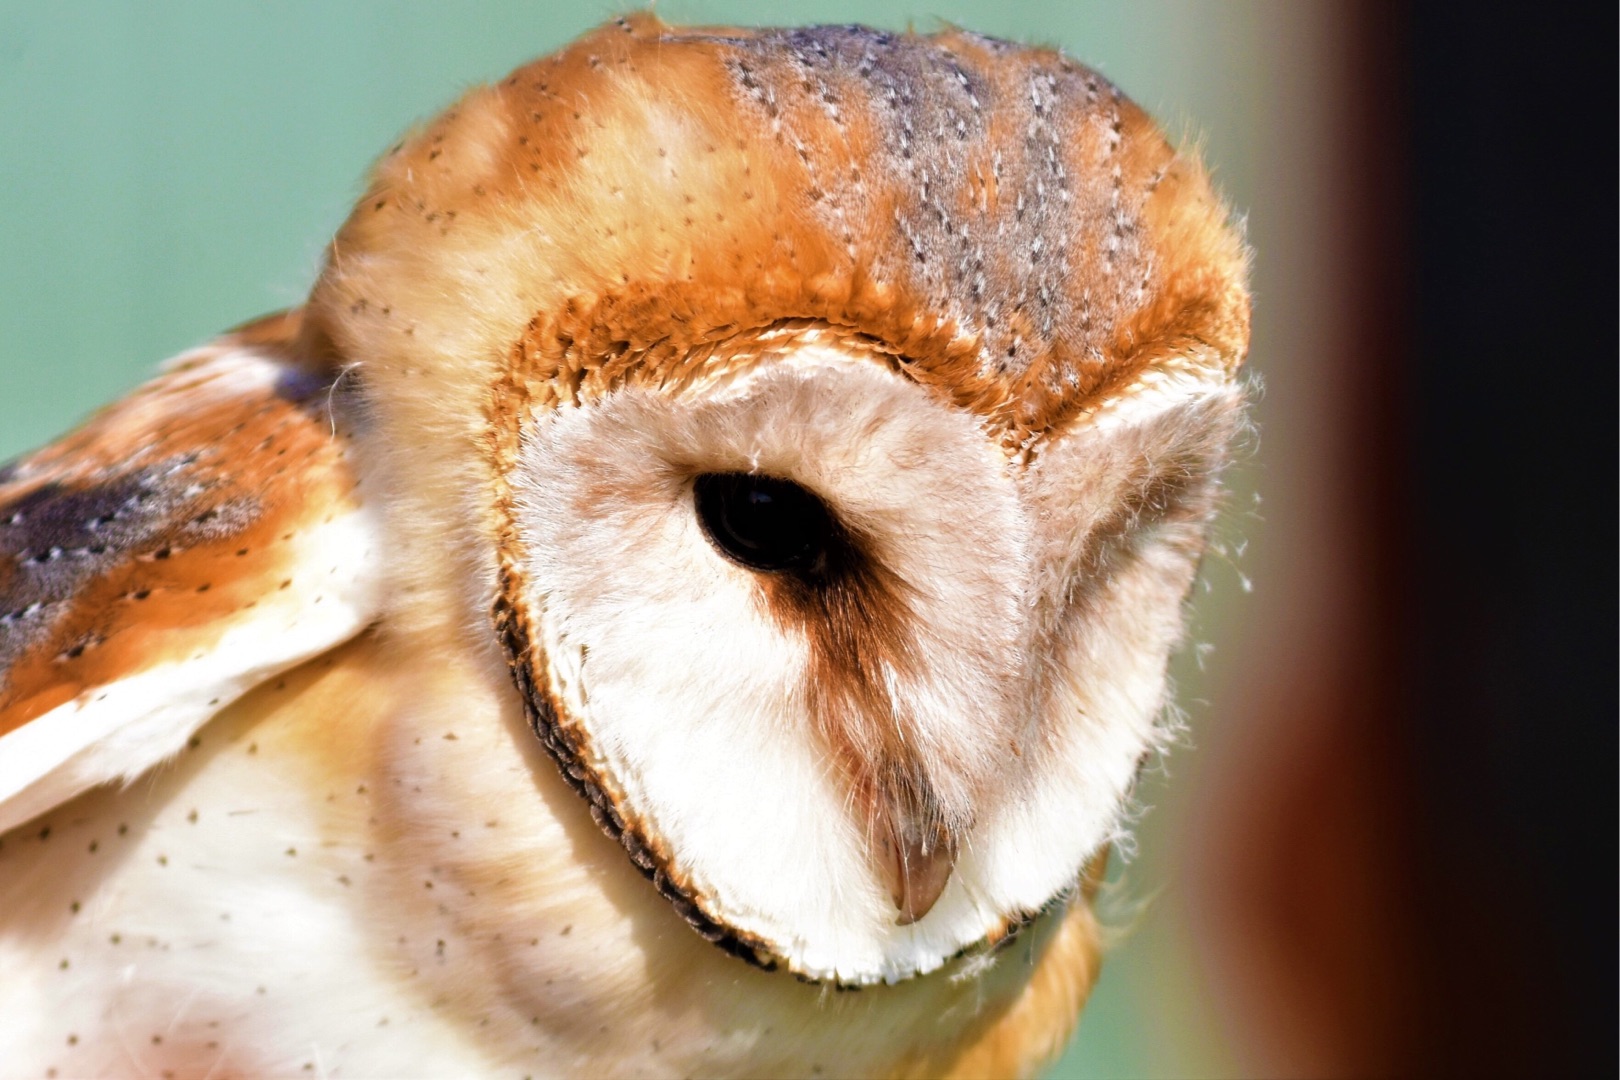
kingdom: Animalia
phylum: Chordata
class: Aves
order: Strigiformes
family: Tytonidae
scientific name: Tytonidae
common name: Slørugler
